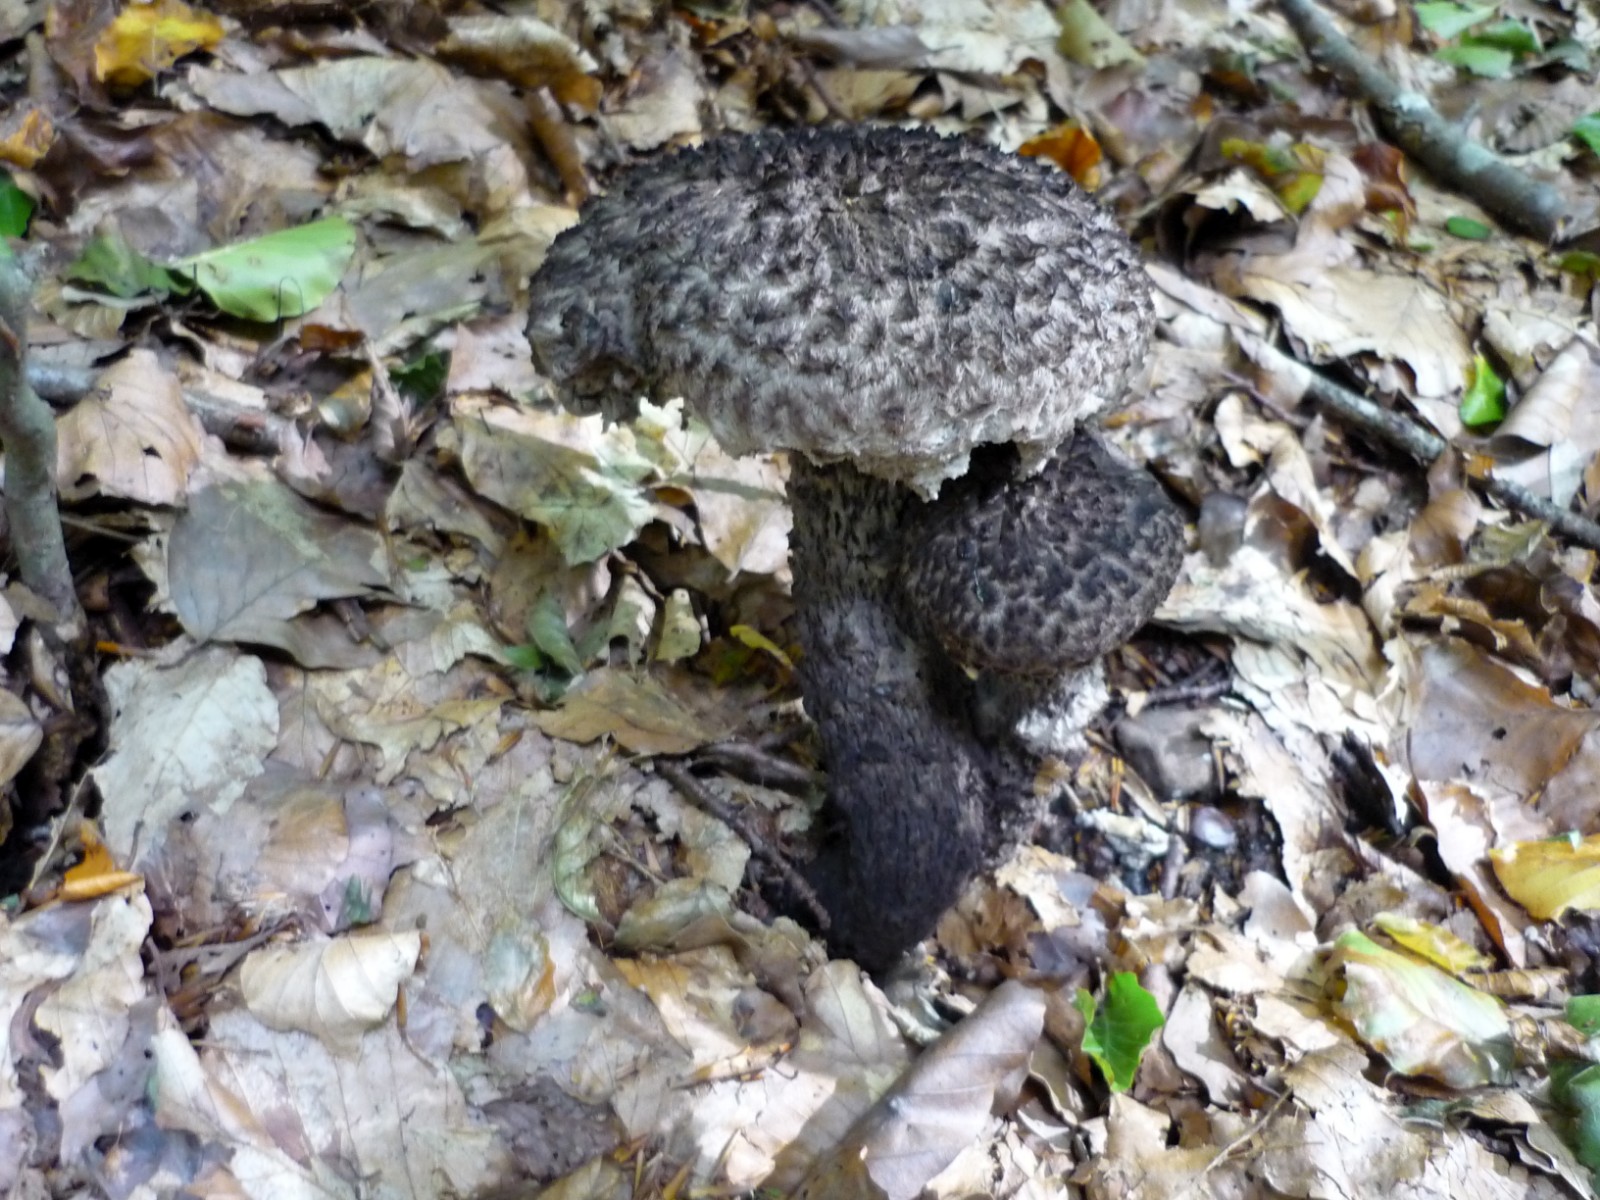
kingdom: Fungi
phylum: Basidiomycota
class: Agaricomycetes
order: Boletales
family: Boletaceae
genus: Strobilomyces
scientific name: Strobilomyces strobilaceus
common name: koglerørhat
